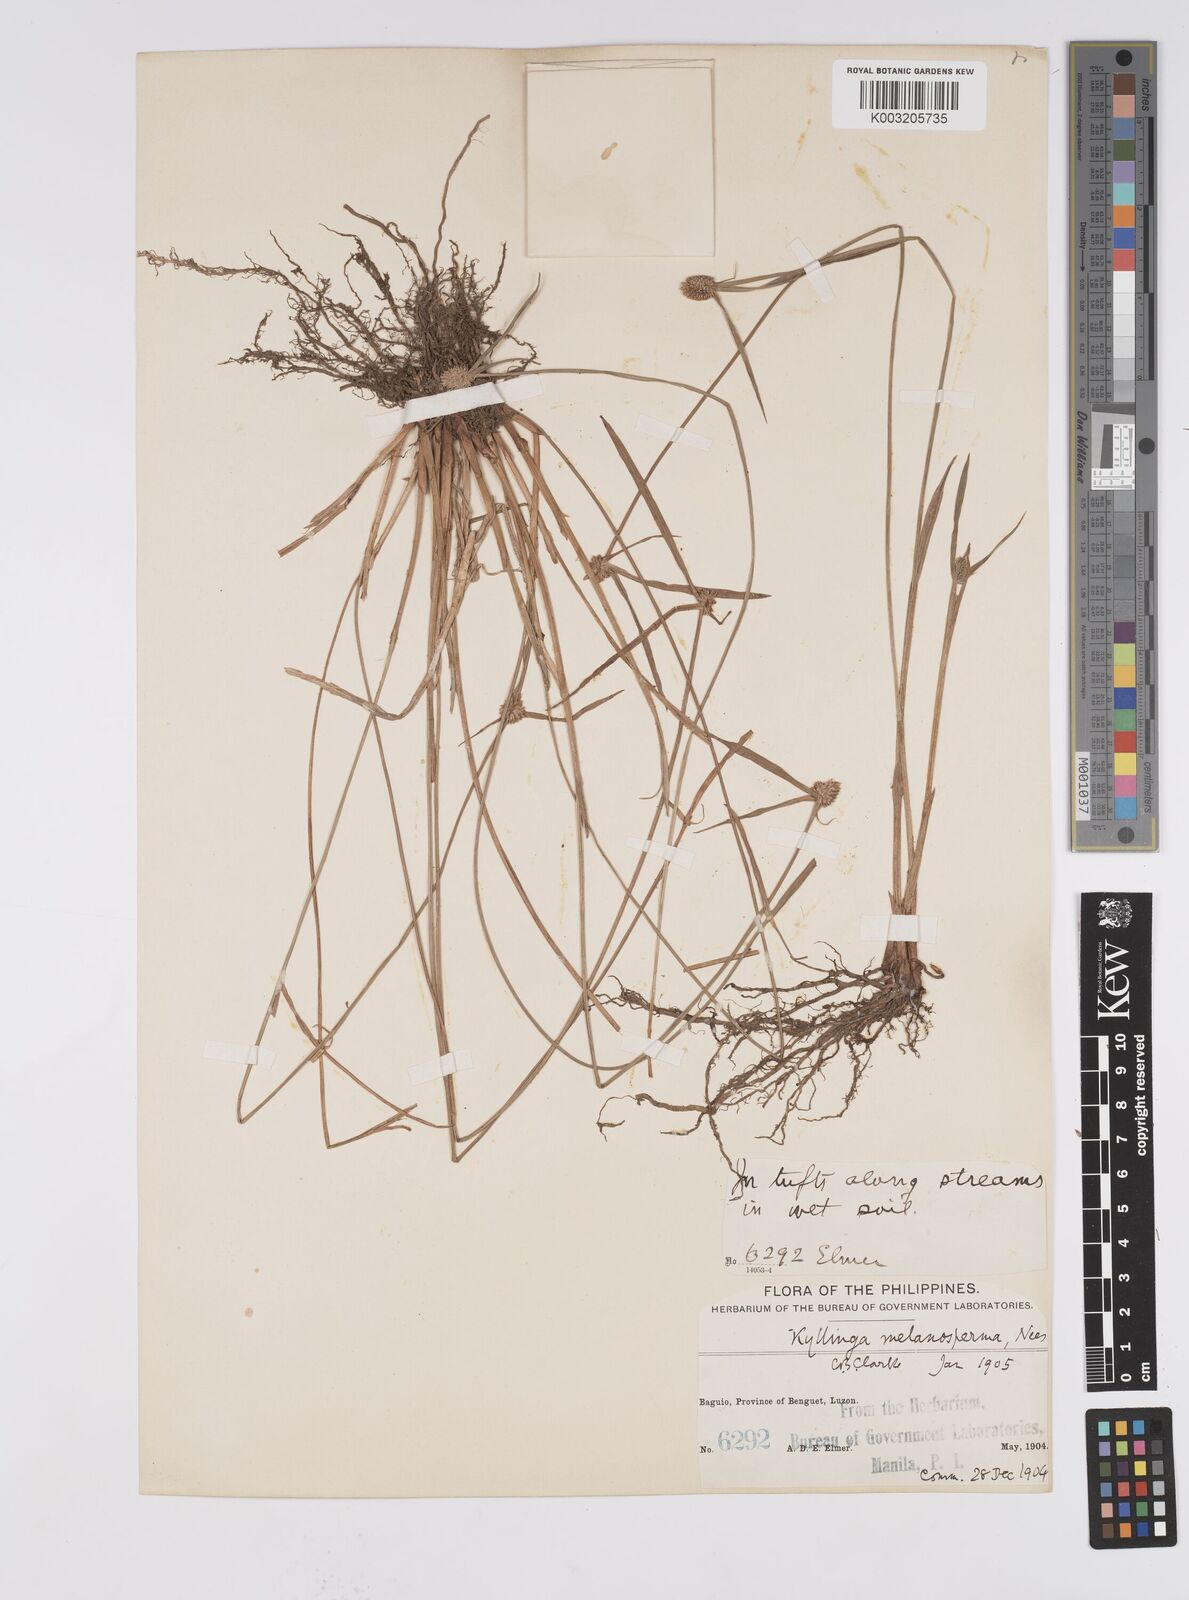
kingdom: Plantae
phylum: Tracheophyta
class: Liliopsida
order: Poales
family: Cyperaceae
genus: Cyperus
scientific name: Cyperus melanospermus
